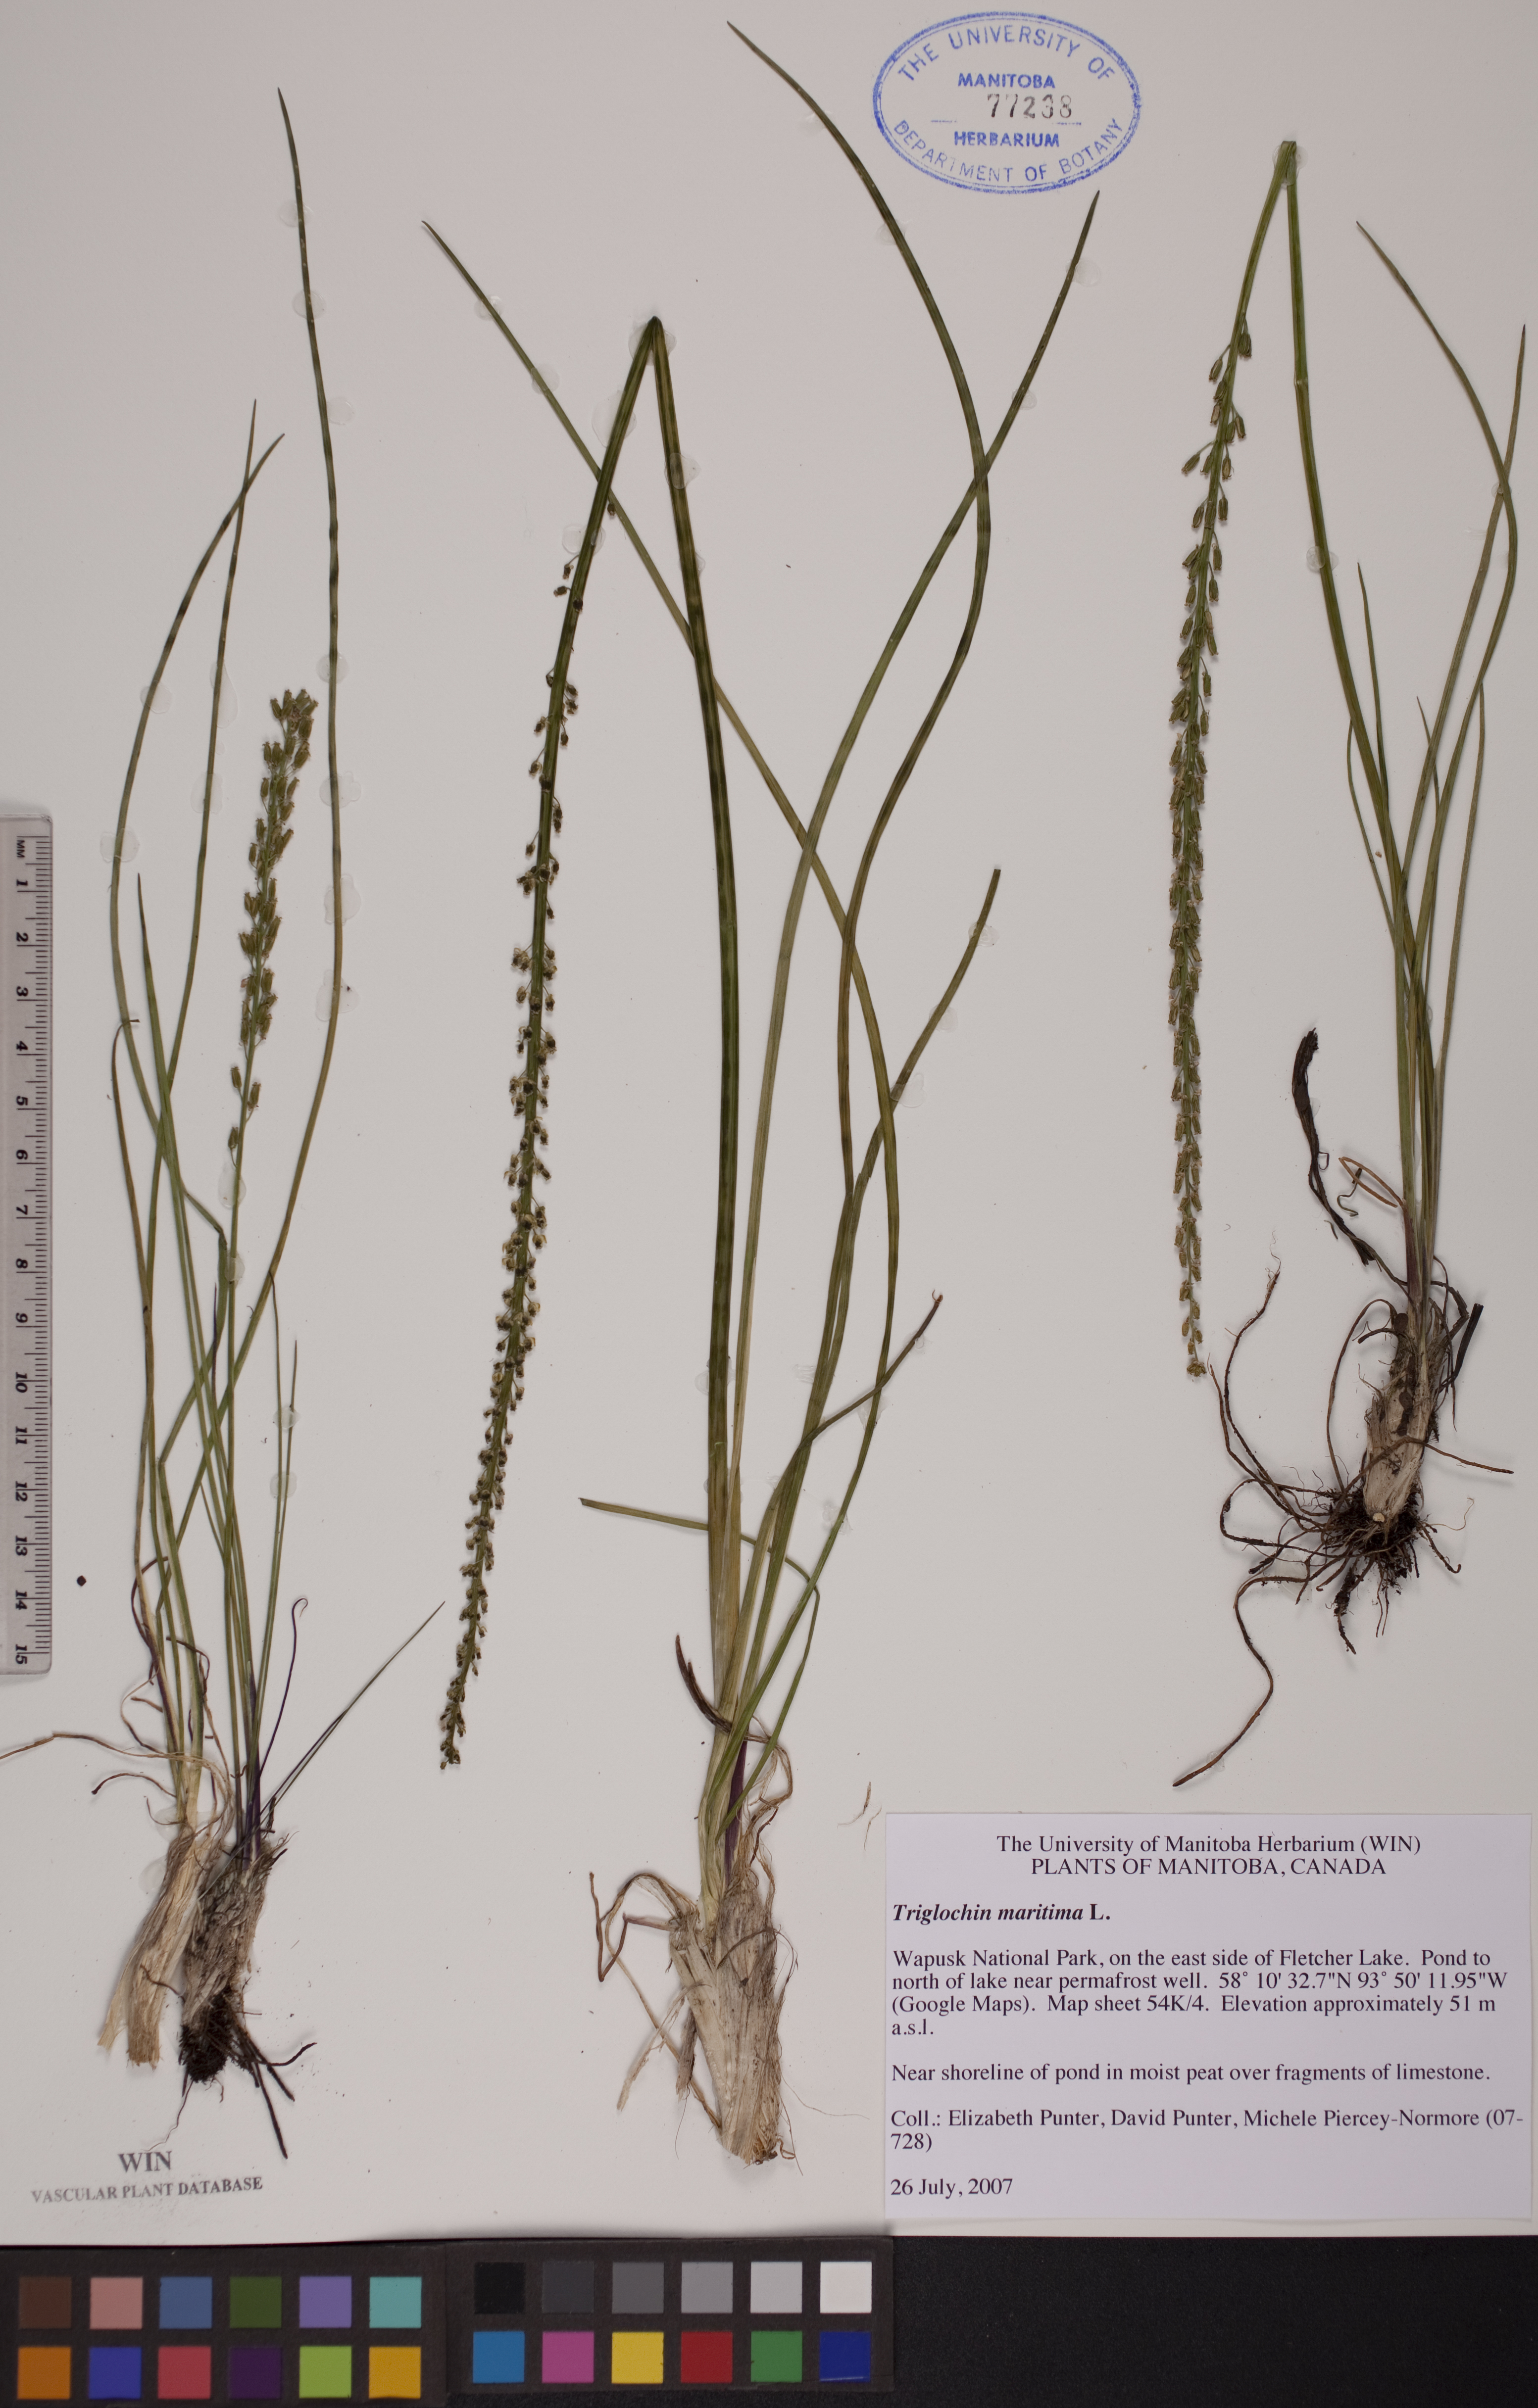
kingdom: Plantae
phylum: Tracheophyta
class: Liliopsida
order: Alismatales
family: Juncaginaceae
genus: Triglochin
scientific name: Triglochin maritima
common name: Sea arrowgrass
